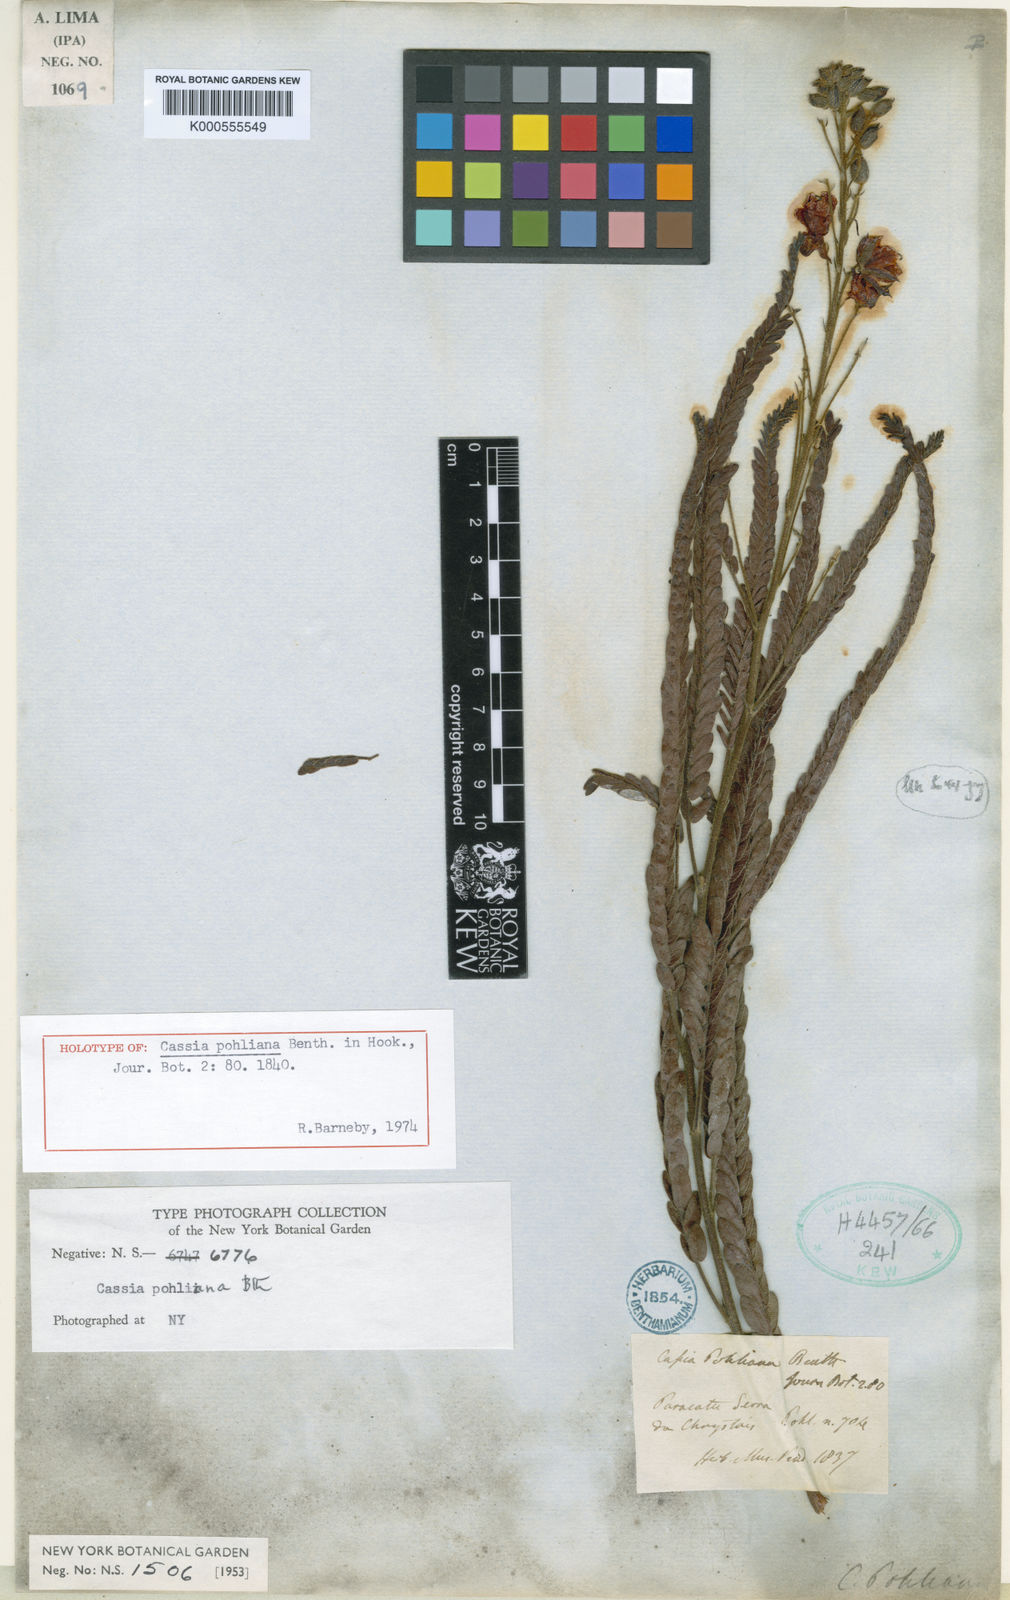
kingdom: Plantae
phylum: Tracheophyta
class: Magnoliopsida
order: Fabales
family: Fabaceae
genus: Chamaecrista
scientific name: Chamaecrista decrescens
